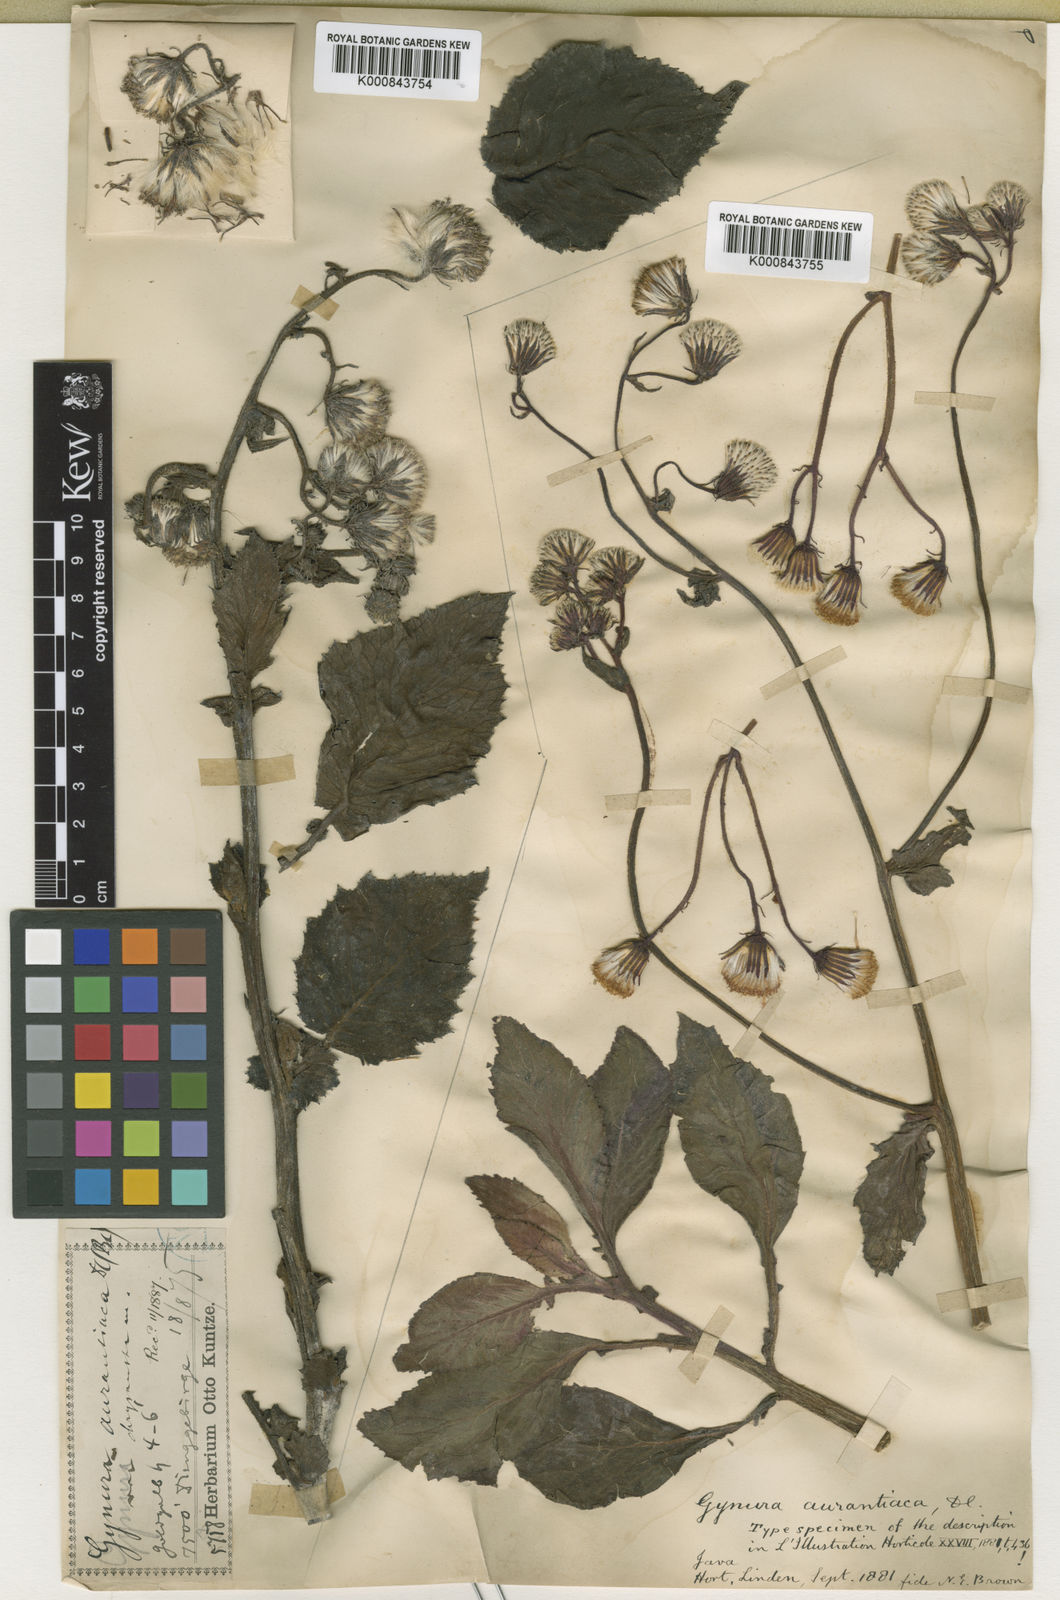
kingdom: Plantae
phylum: Tracheophyta
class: Magnoliopsida
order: Asterales
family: Asteraceae
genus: Gynura
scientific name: Gynura aurantiaca
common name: Velvetplant
